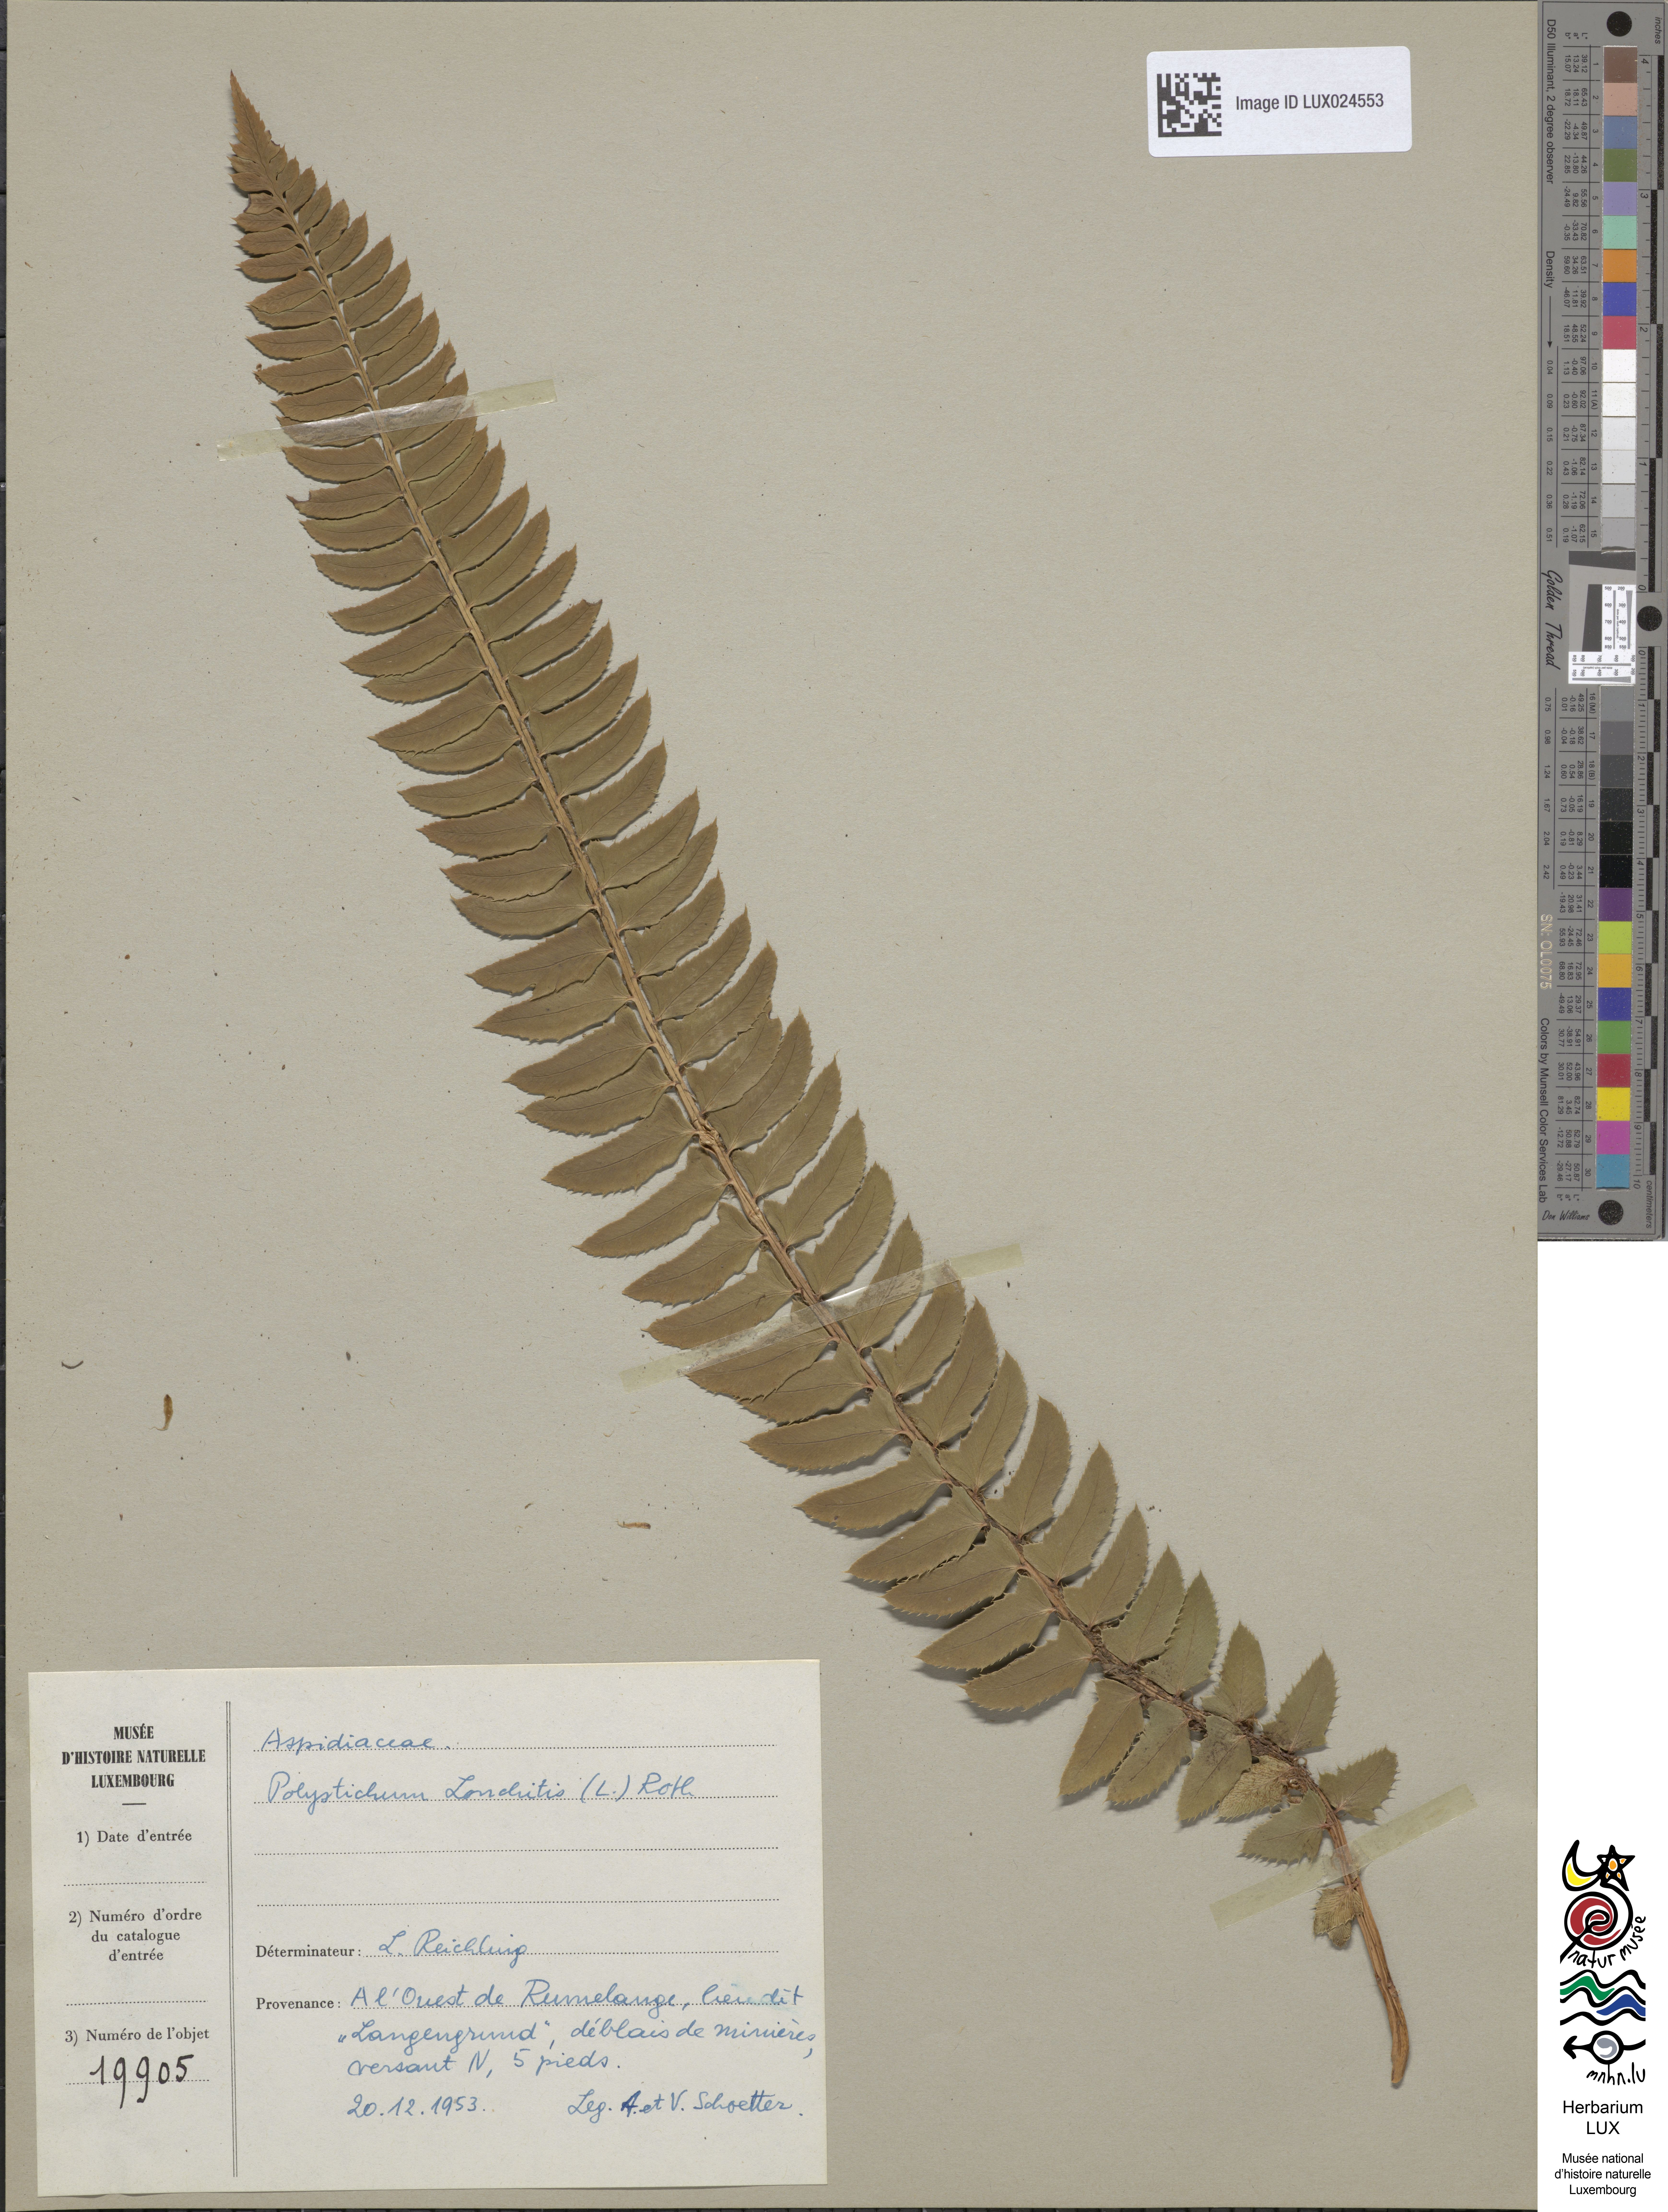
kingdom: Plantae
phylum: Tracheophyta
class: Polypodiopsida
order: Polypodiales
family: Dryopteridaceae
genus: Polystichum
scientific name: Polystichum lonchitis
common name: Holly fern
